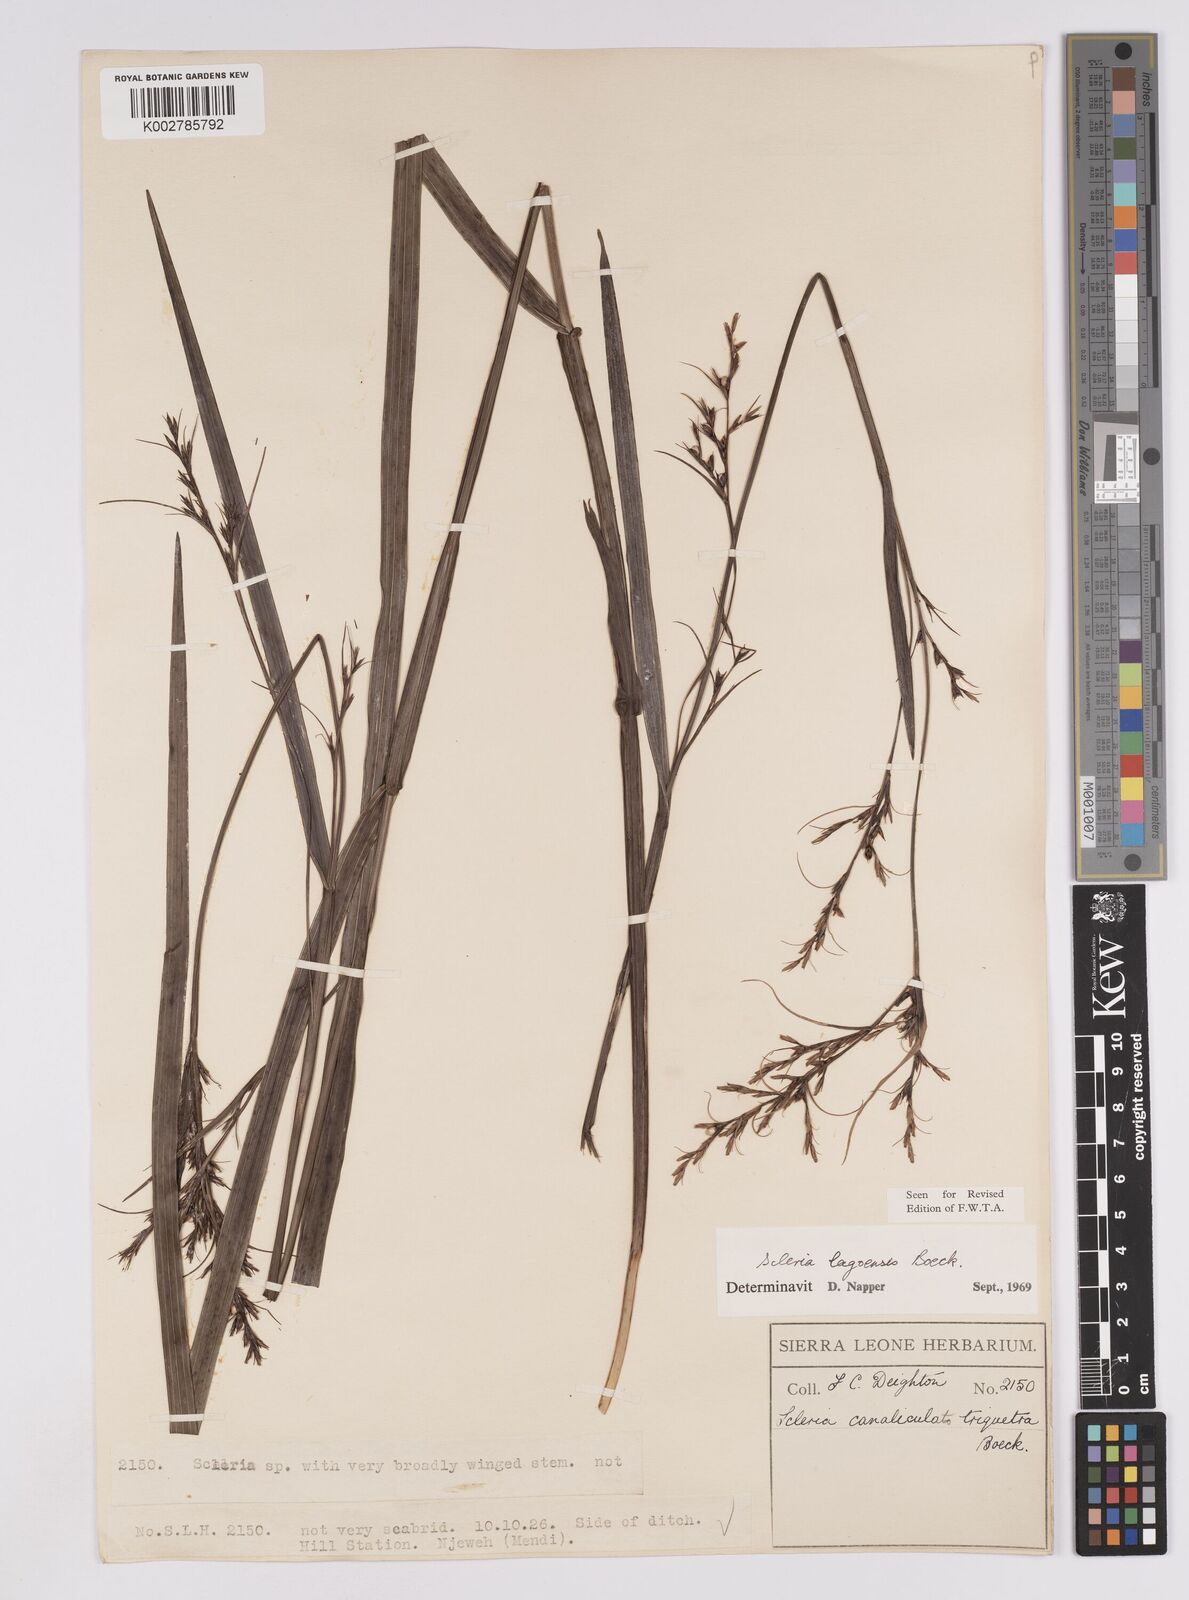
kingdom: Plantae
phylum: Tracheophyta
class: Liliopsida
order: Poales
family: Cyperaceae
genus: Scleria
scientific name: Scleria lagoensis
